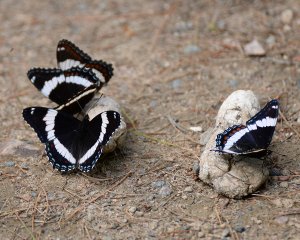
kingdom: Animalia
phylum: Arthropoda
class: Insecta
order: Lepidoptera
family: Nymphalidae
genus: Limenitis
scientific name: Limenitis arthemis
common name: Red-spotted Admiral
